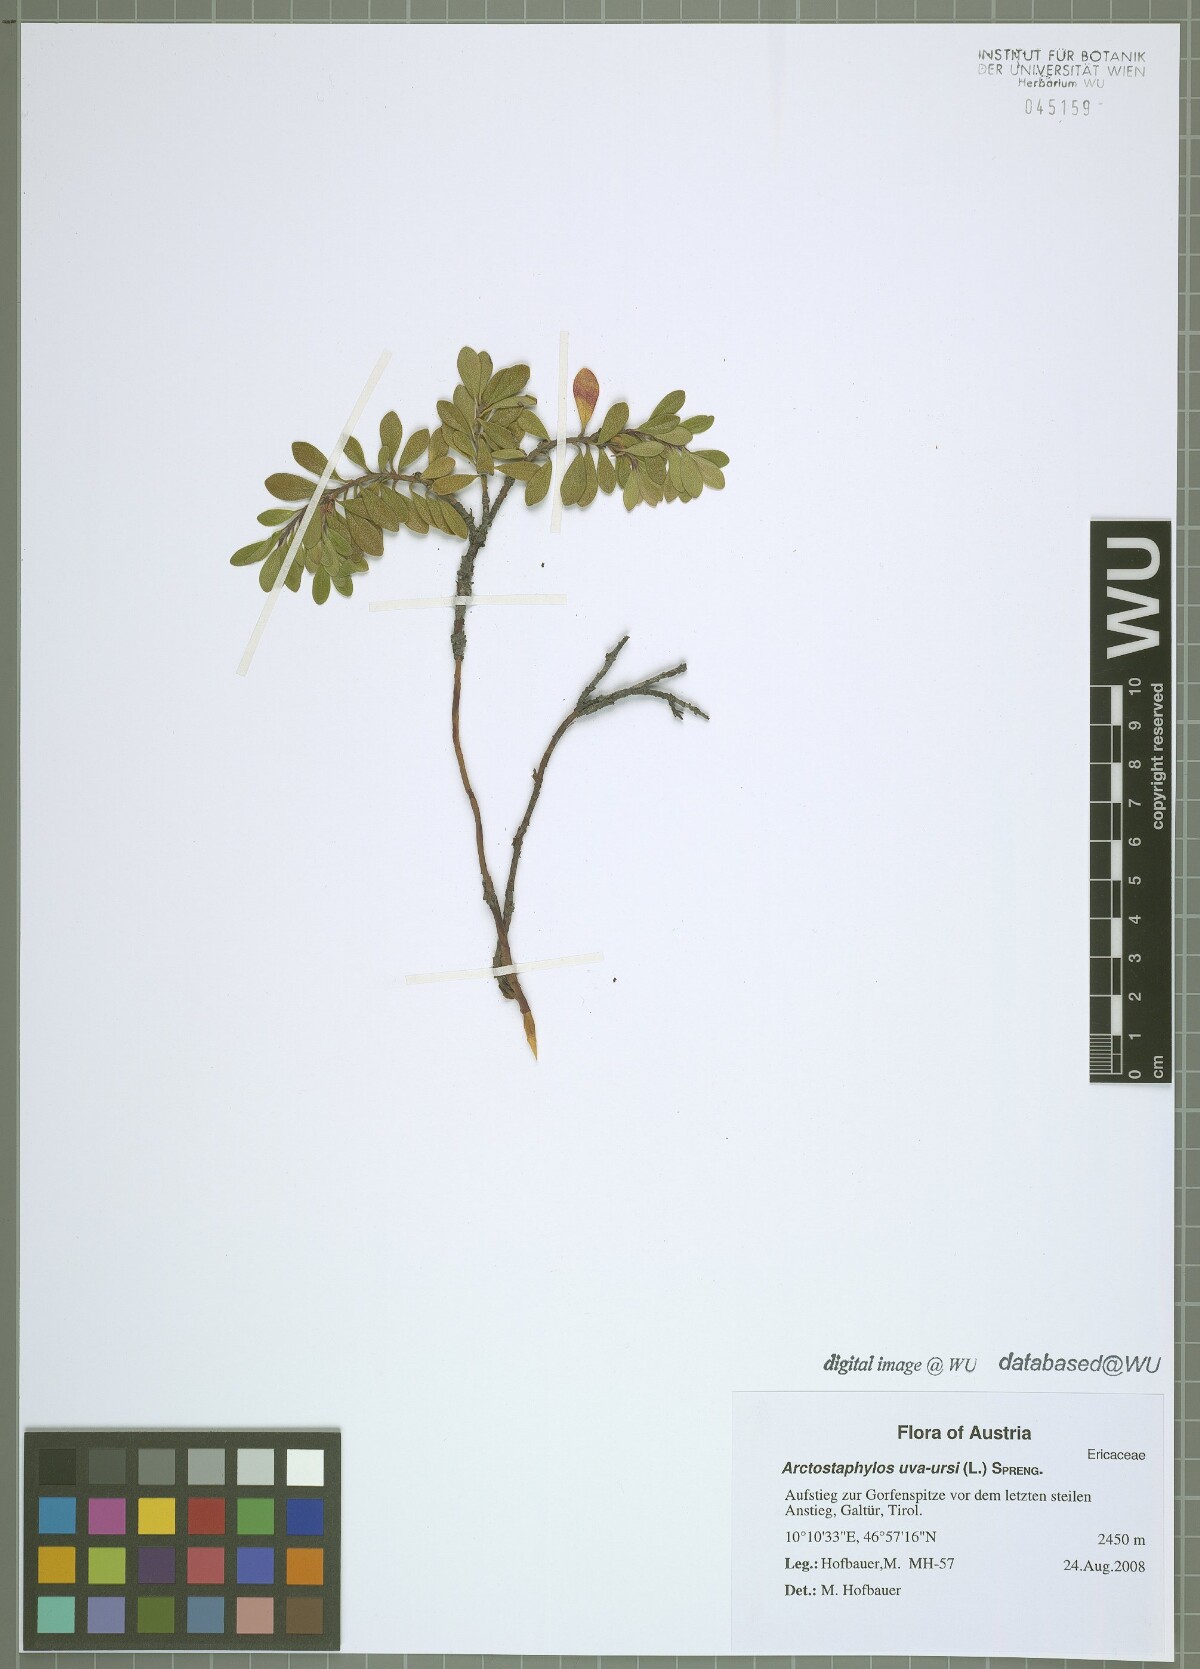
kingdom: Plantae
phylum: Tracheophyta
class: Magnoliopsida
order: Ericales
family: Ericaceae
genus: Arctostaphylos
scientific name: Arctostaphylos uva-ursi
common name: Bearberry
